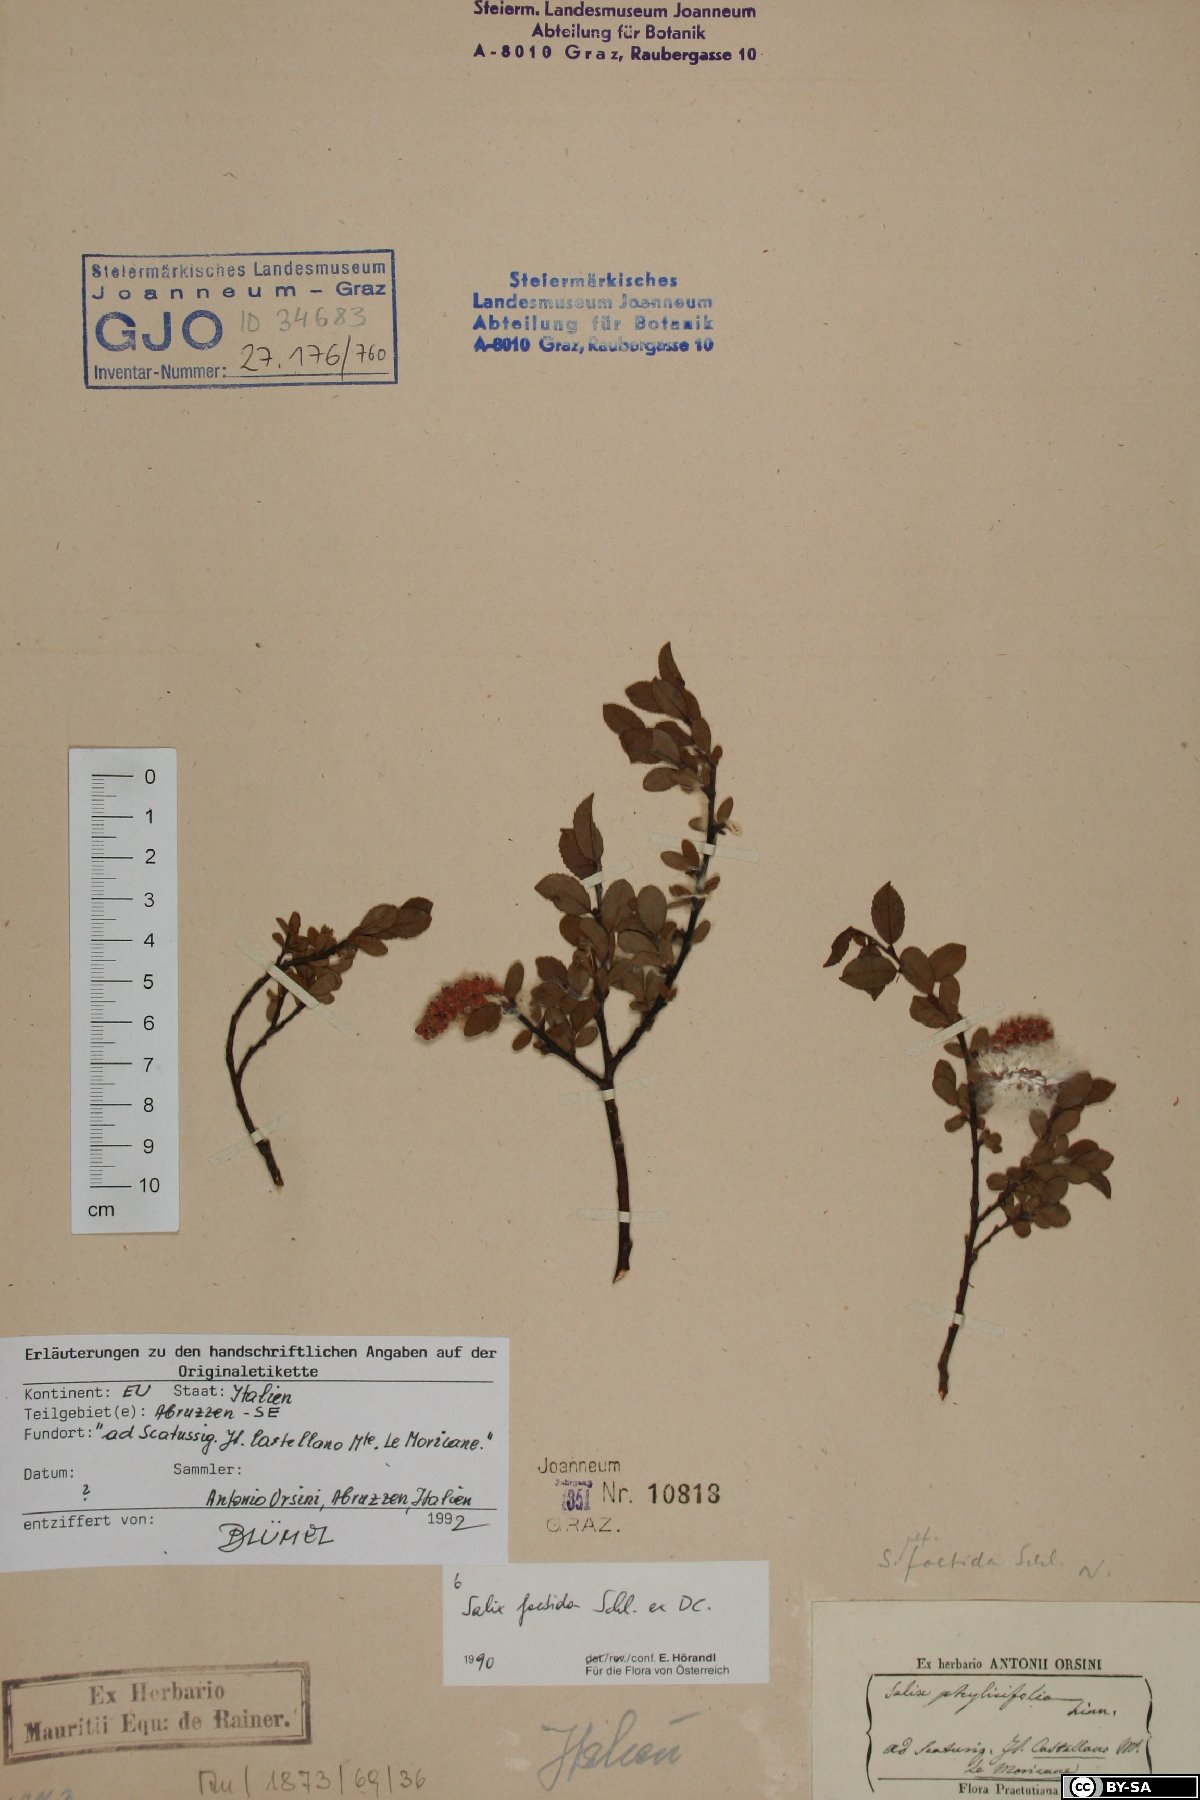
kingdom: Plantae
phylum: Tracheophyta
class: Magnoliopsida
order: Malpighiales
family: Salicaceae
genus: Salix
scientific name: Salix foetida
